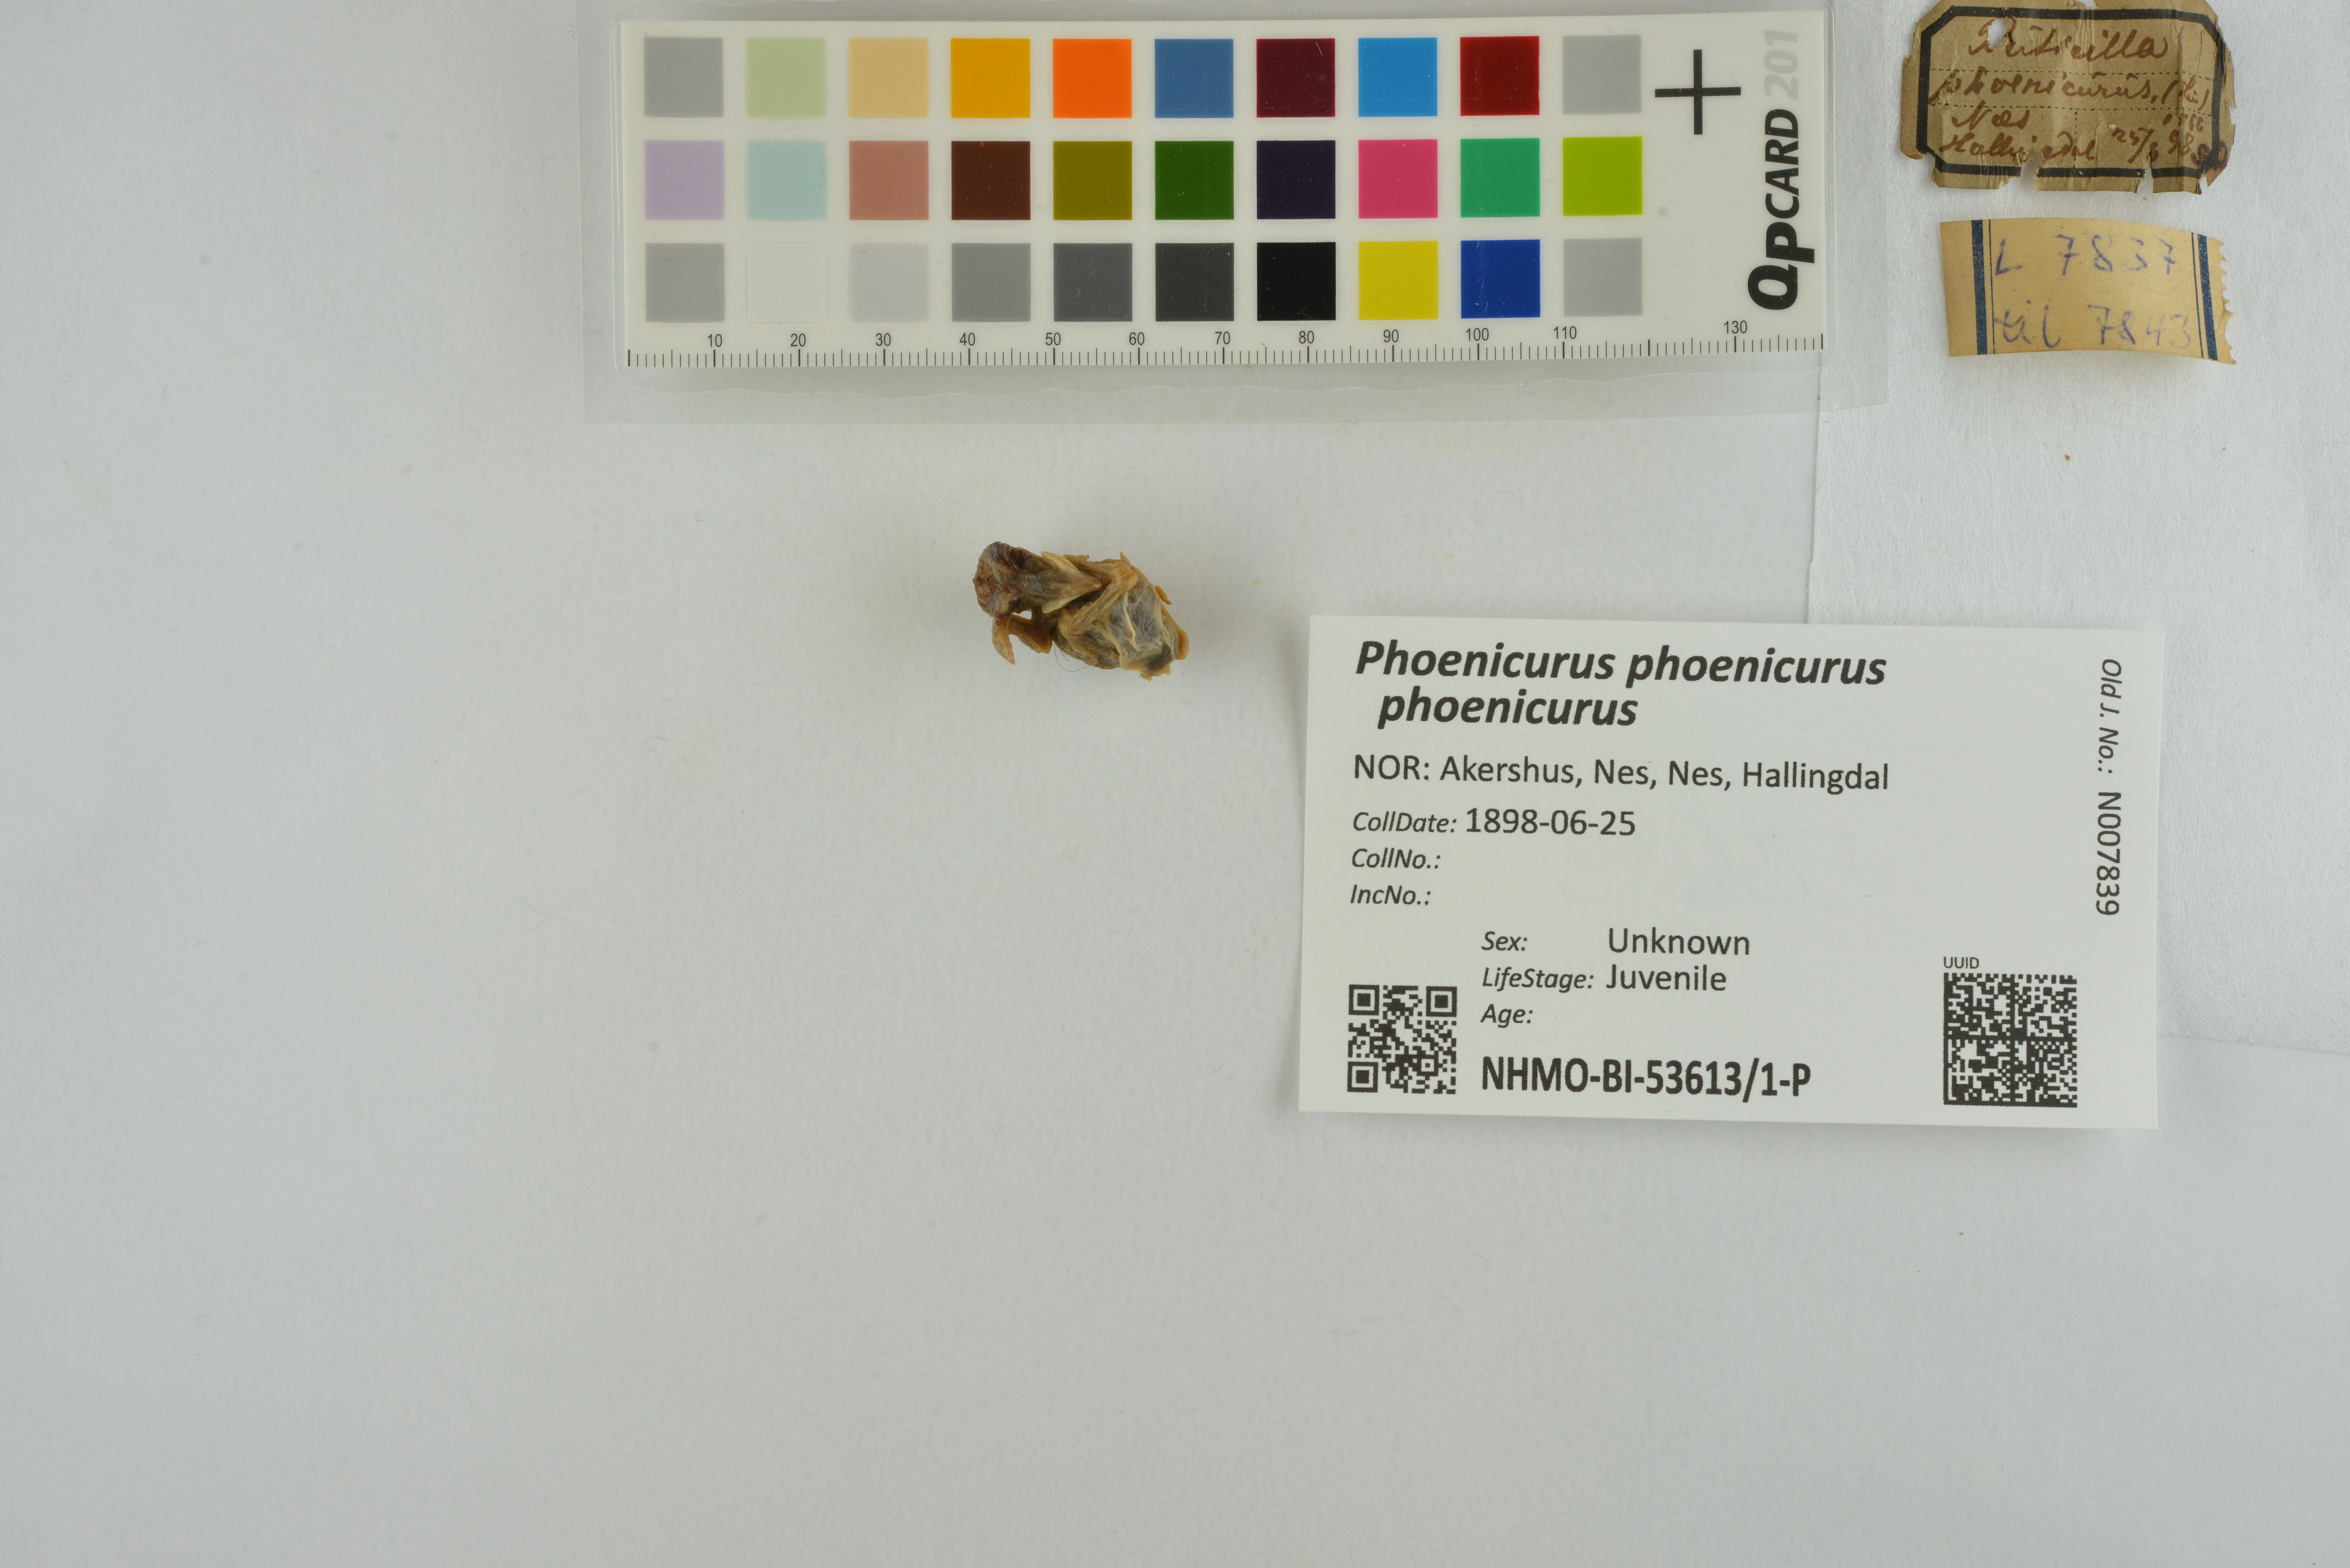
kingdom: Animalia
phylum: Chordata
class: Aves
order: Passeriformes
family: Muscicapidae
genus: Phoenicurus
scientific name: Phoenicurus phoenicurus
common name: Common redstart
